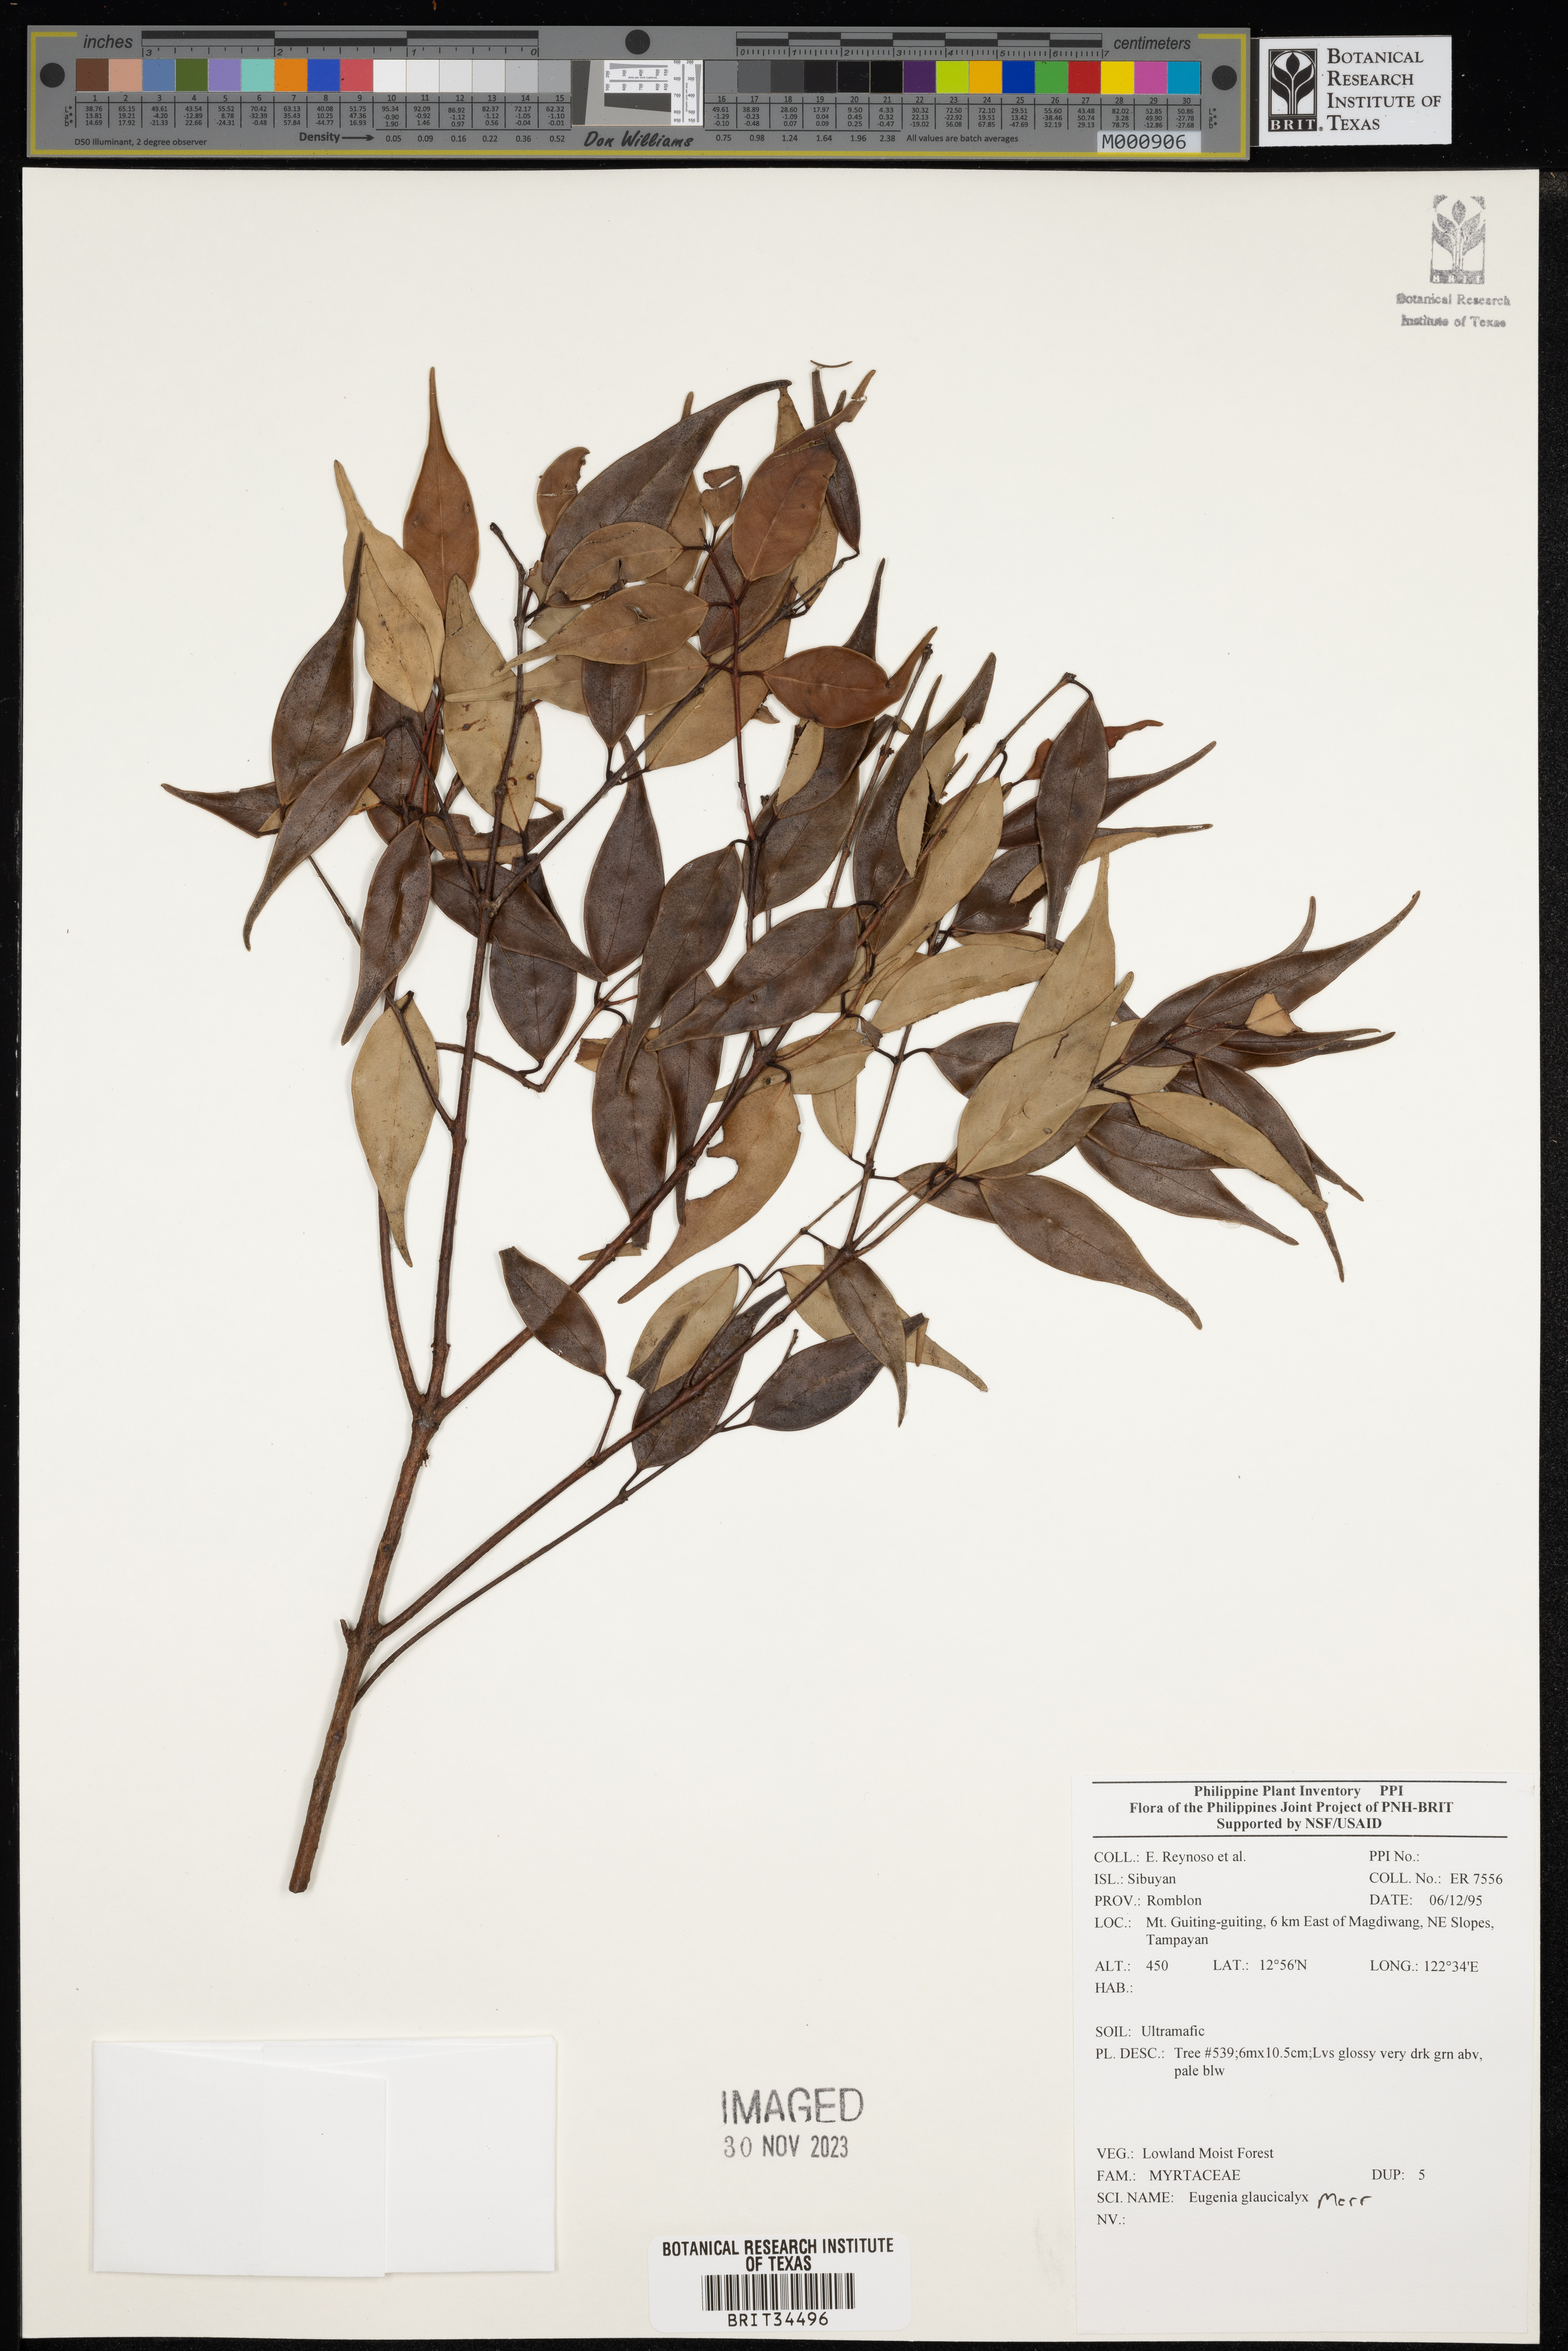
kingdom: Plantae
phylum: Tracheophyta
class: Magnoliopsida
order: Myrtales
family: Myrtaceae
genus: Eugenia
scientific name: Eugenia
